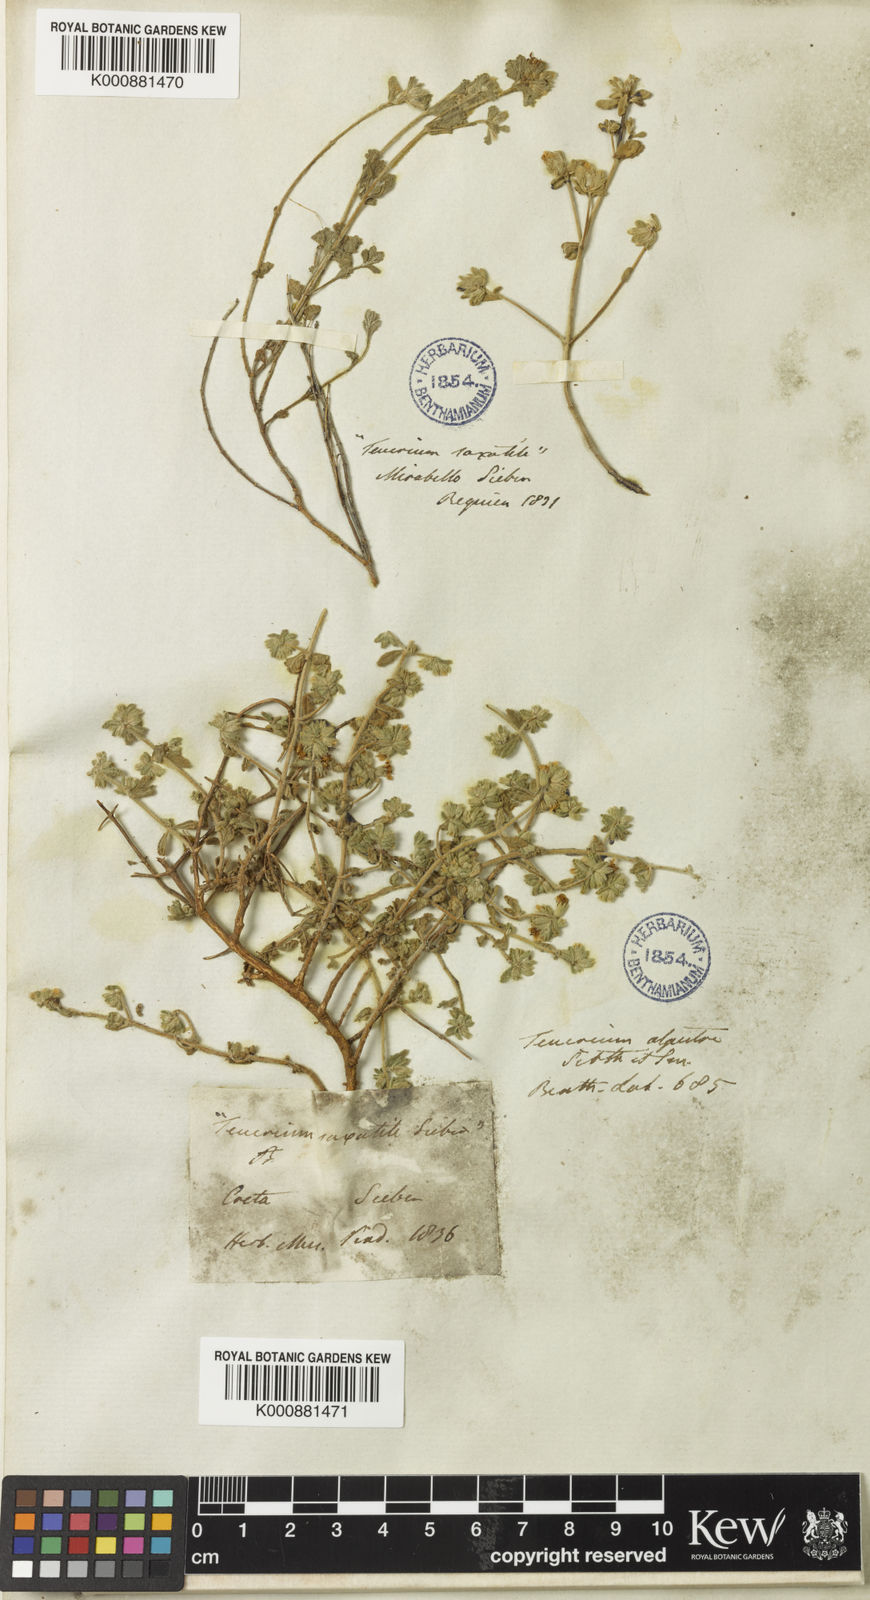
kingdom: Plantae
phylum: Tracheophyta
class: Magnoliopsida
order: Lamiales
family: Lamiaceae
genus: Teucrium
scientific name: Teucrium alpestre
